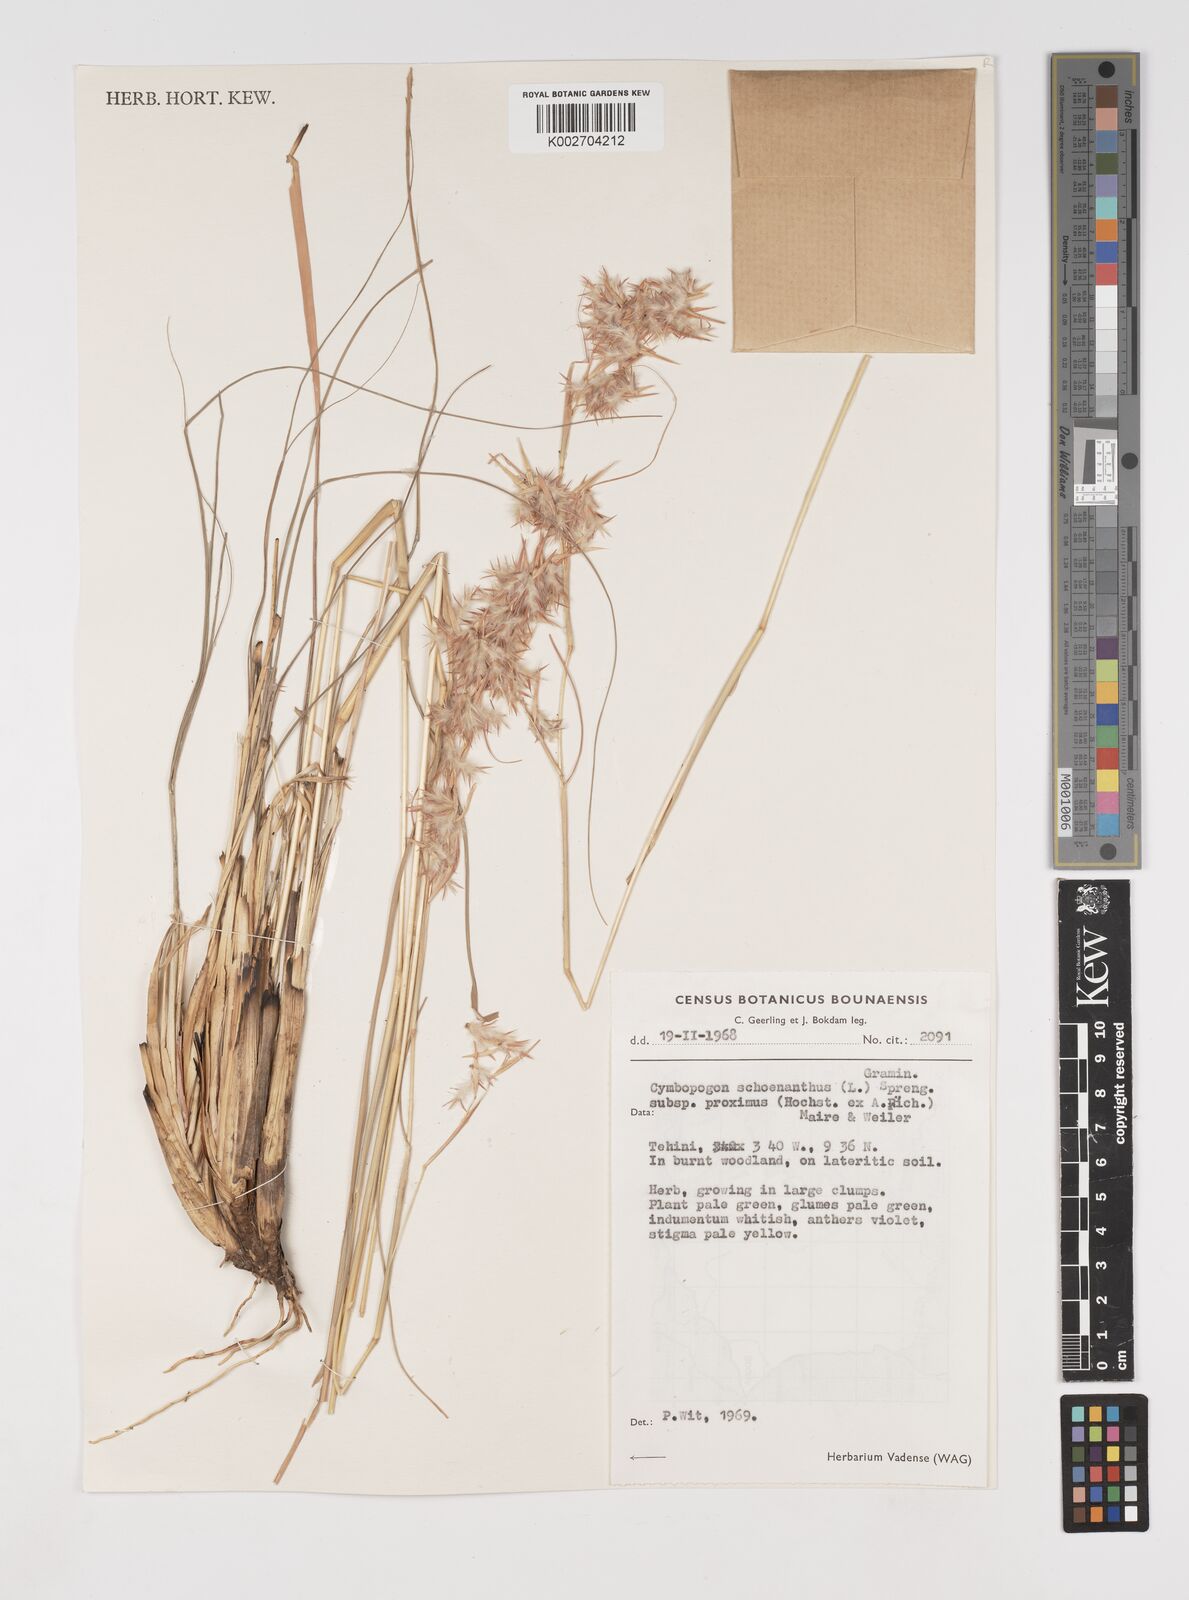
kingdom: Plantae
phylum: Tracheophyta
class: Liliopsida
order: Poales
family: Poaceae
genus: Cymbopogon
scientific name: Cymbopogon schoenanthus
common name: Geranium grass
